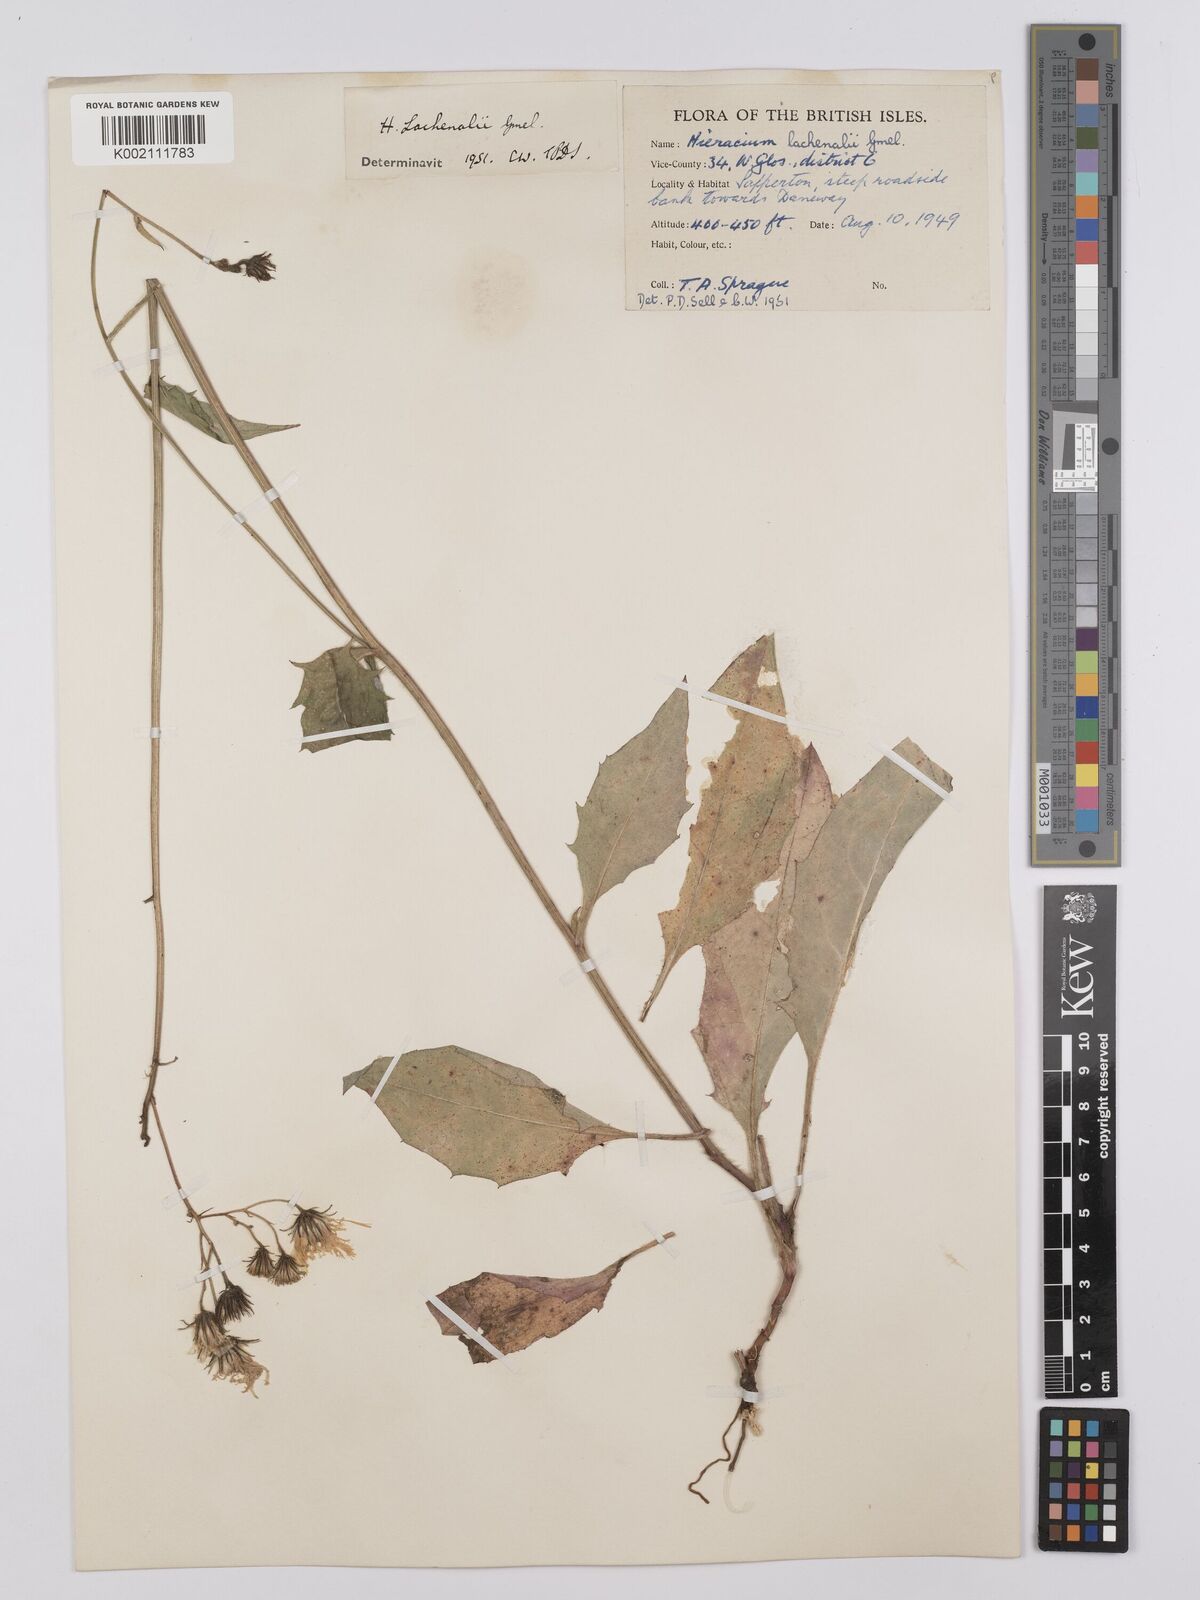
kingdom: Plantae
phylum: Tracheophyta
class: Magnoliopsida
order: Asterales
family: Asteraceae
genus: Hieracium
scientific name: Hieracium lachenalii
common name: Common hawkweed
